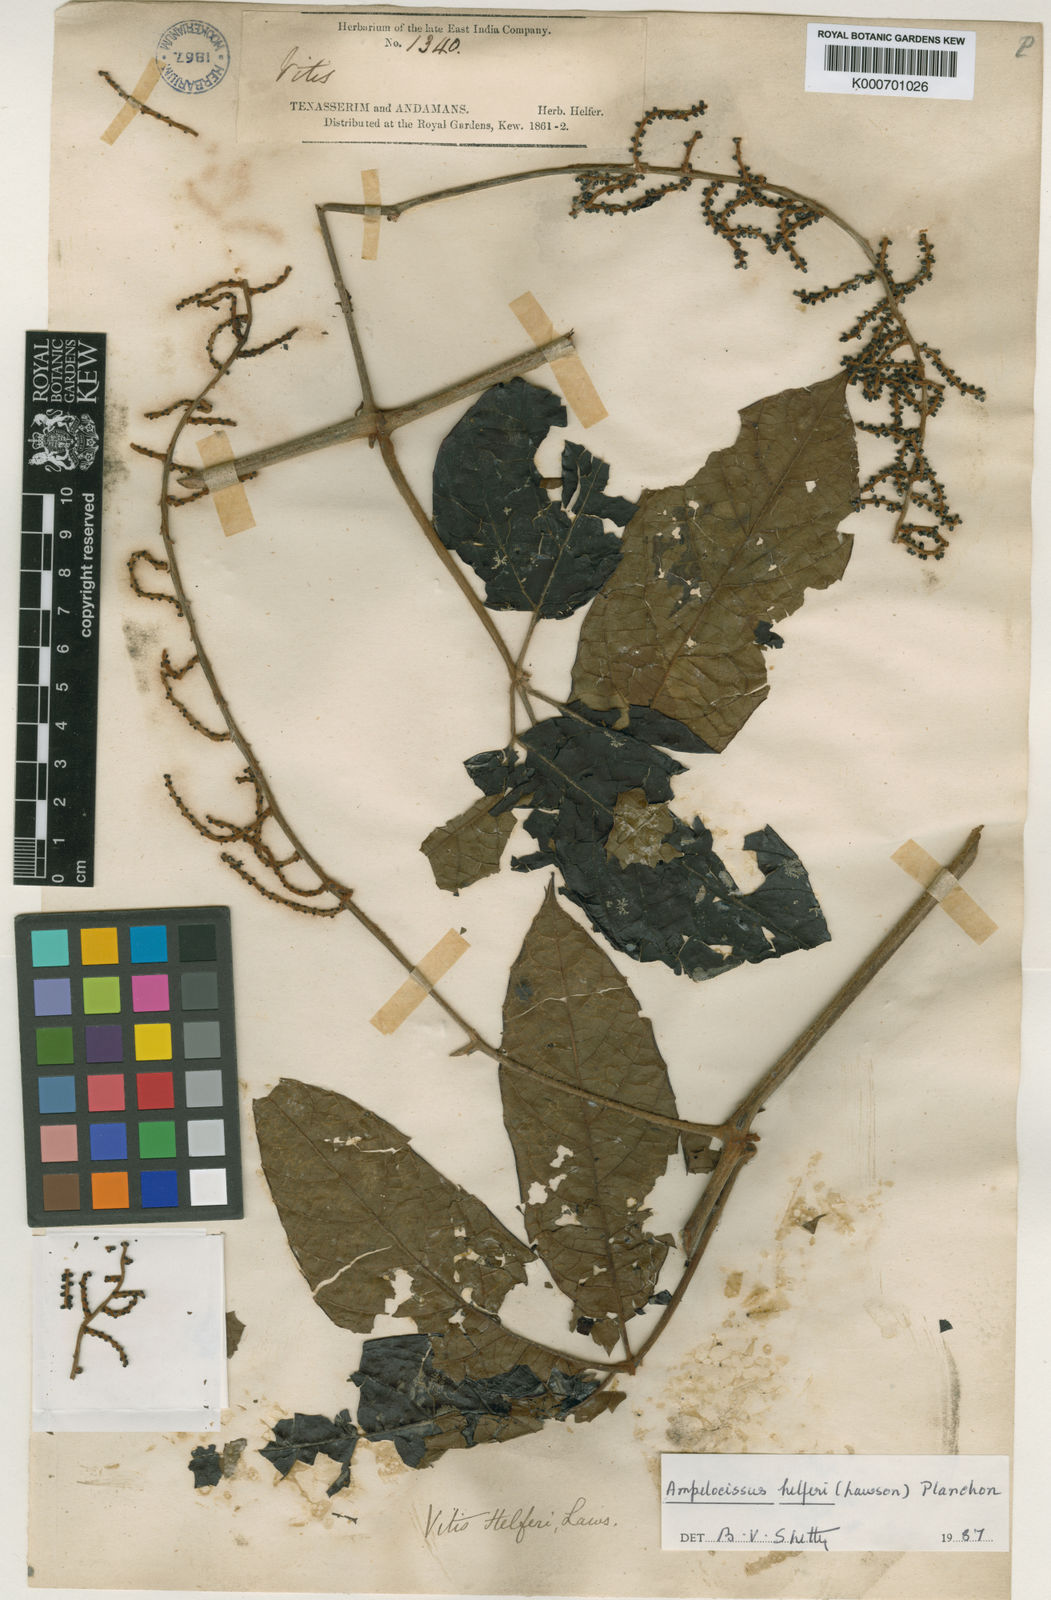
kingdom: Plantae
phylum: Tracheophyta
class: Magnoliopsida
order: Vitales
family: Vitaceae
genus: Ampelocissus
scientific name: Ampelocissus helferi
